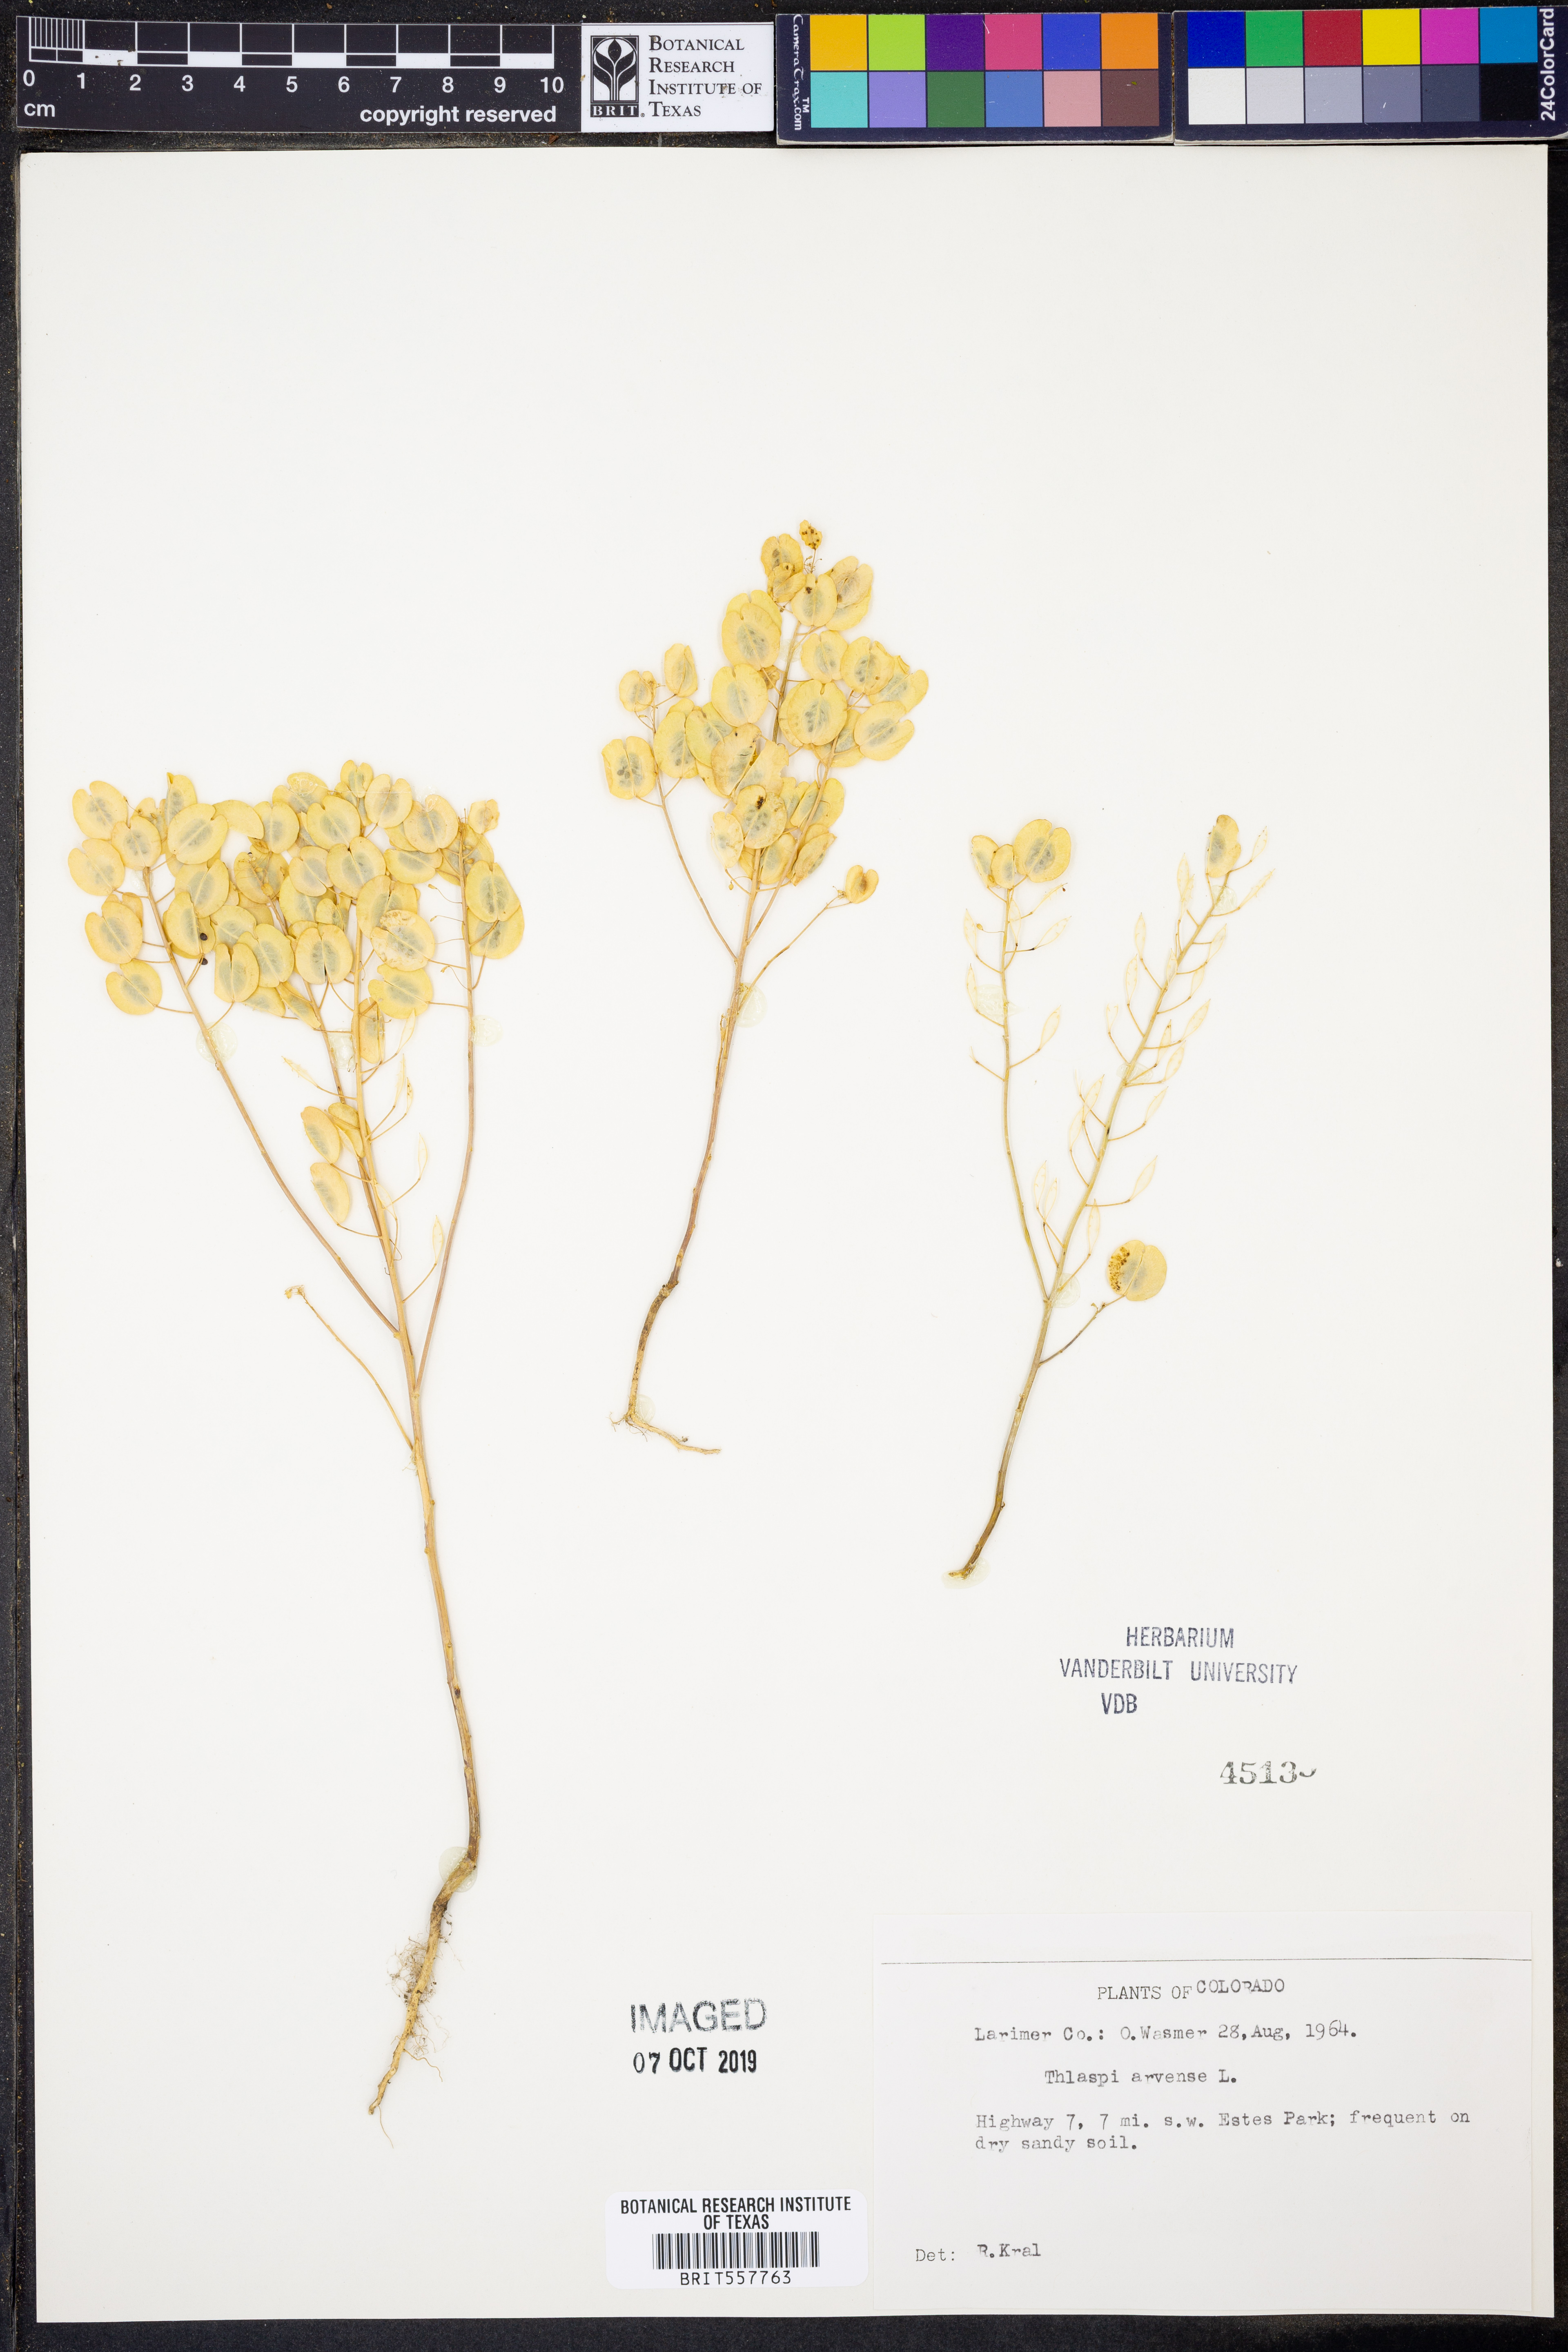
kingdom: Plantae
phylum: Tracheophyta
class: Magnoliopsida
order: Brassicales
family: Brassicaceae
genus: Thlaspi
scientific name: Thlaspi arvense
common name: Field pennycress
